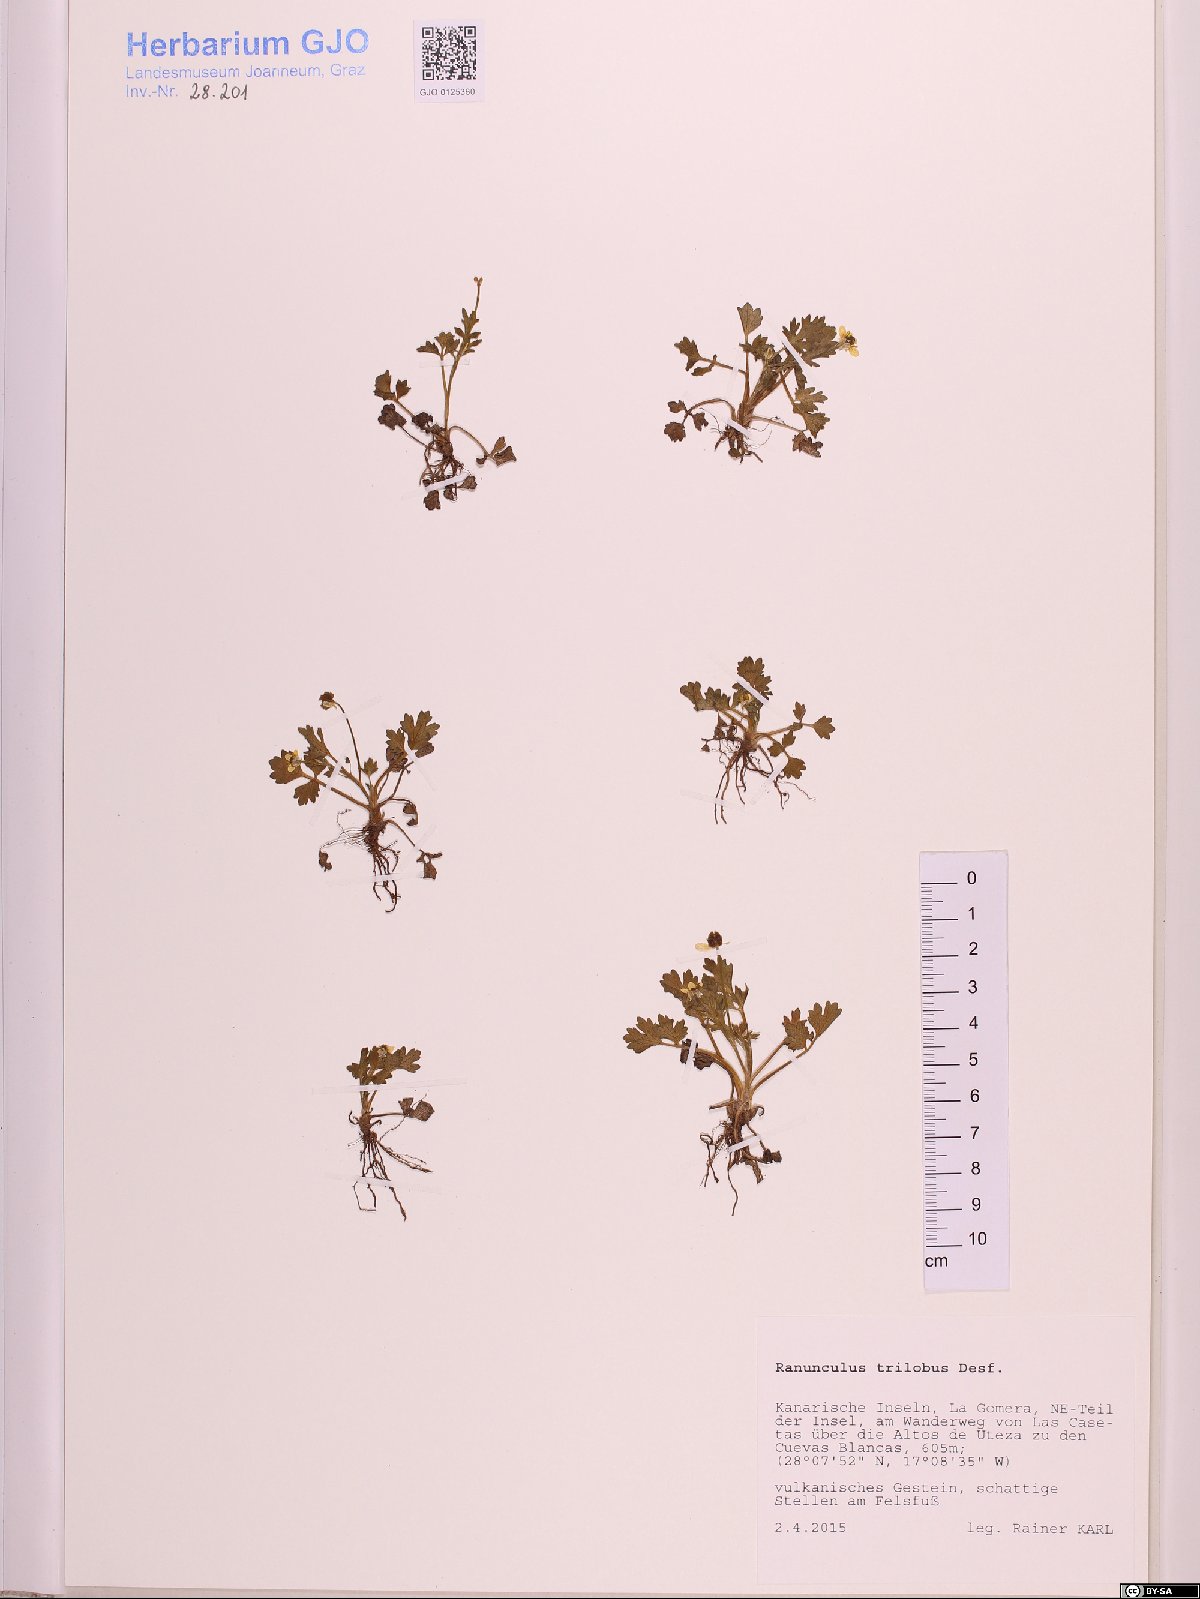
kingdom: Plantae
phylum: Tracheophyta
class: Magnoliopsida
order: Ranunculales
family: Ranunculaceae
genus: Ranunculus
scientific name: Ranunculus trilobus
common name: Threelobe buttercup
